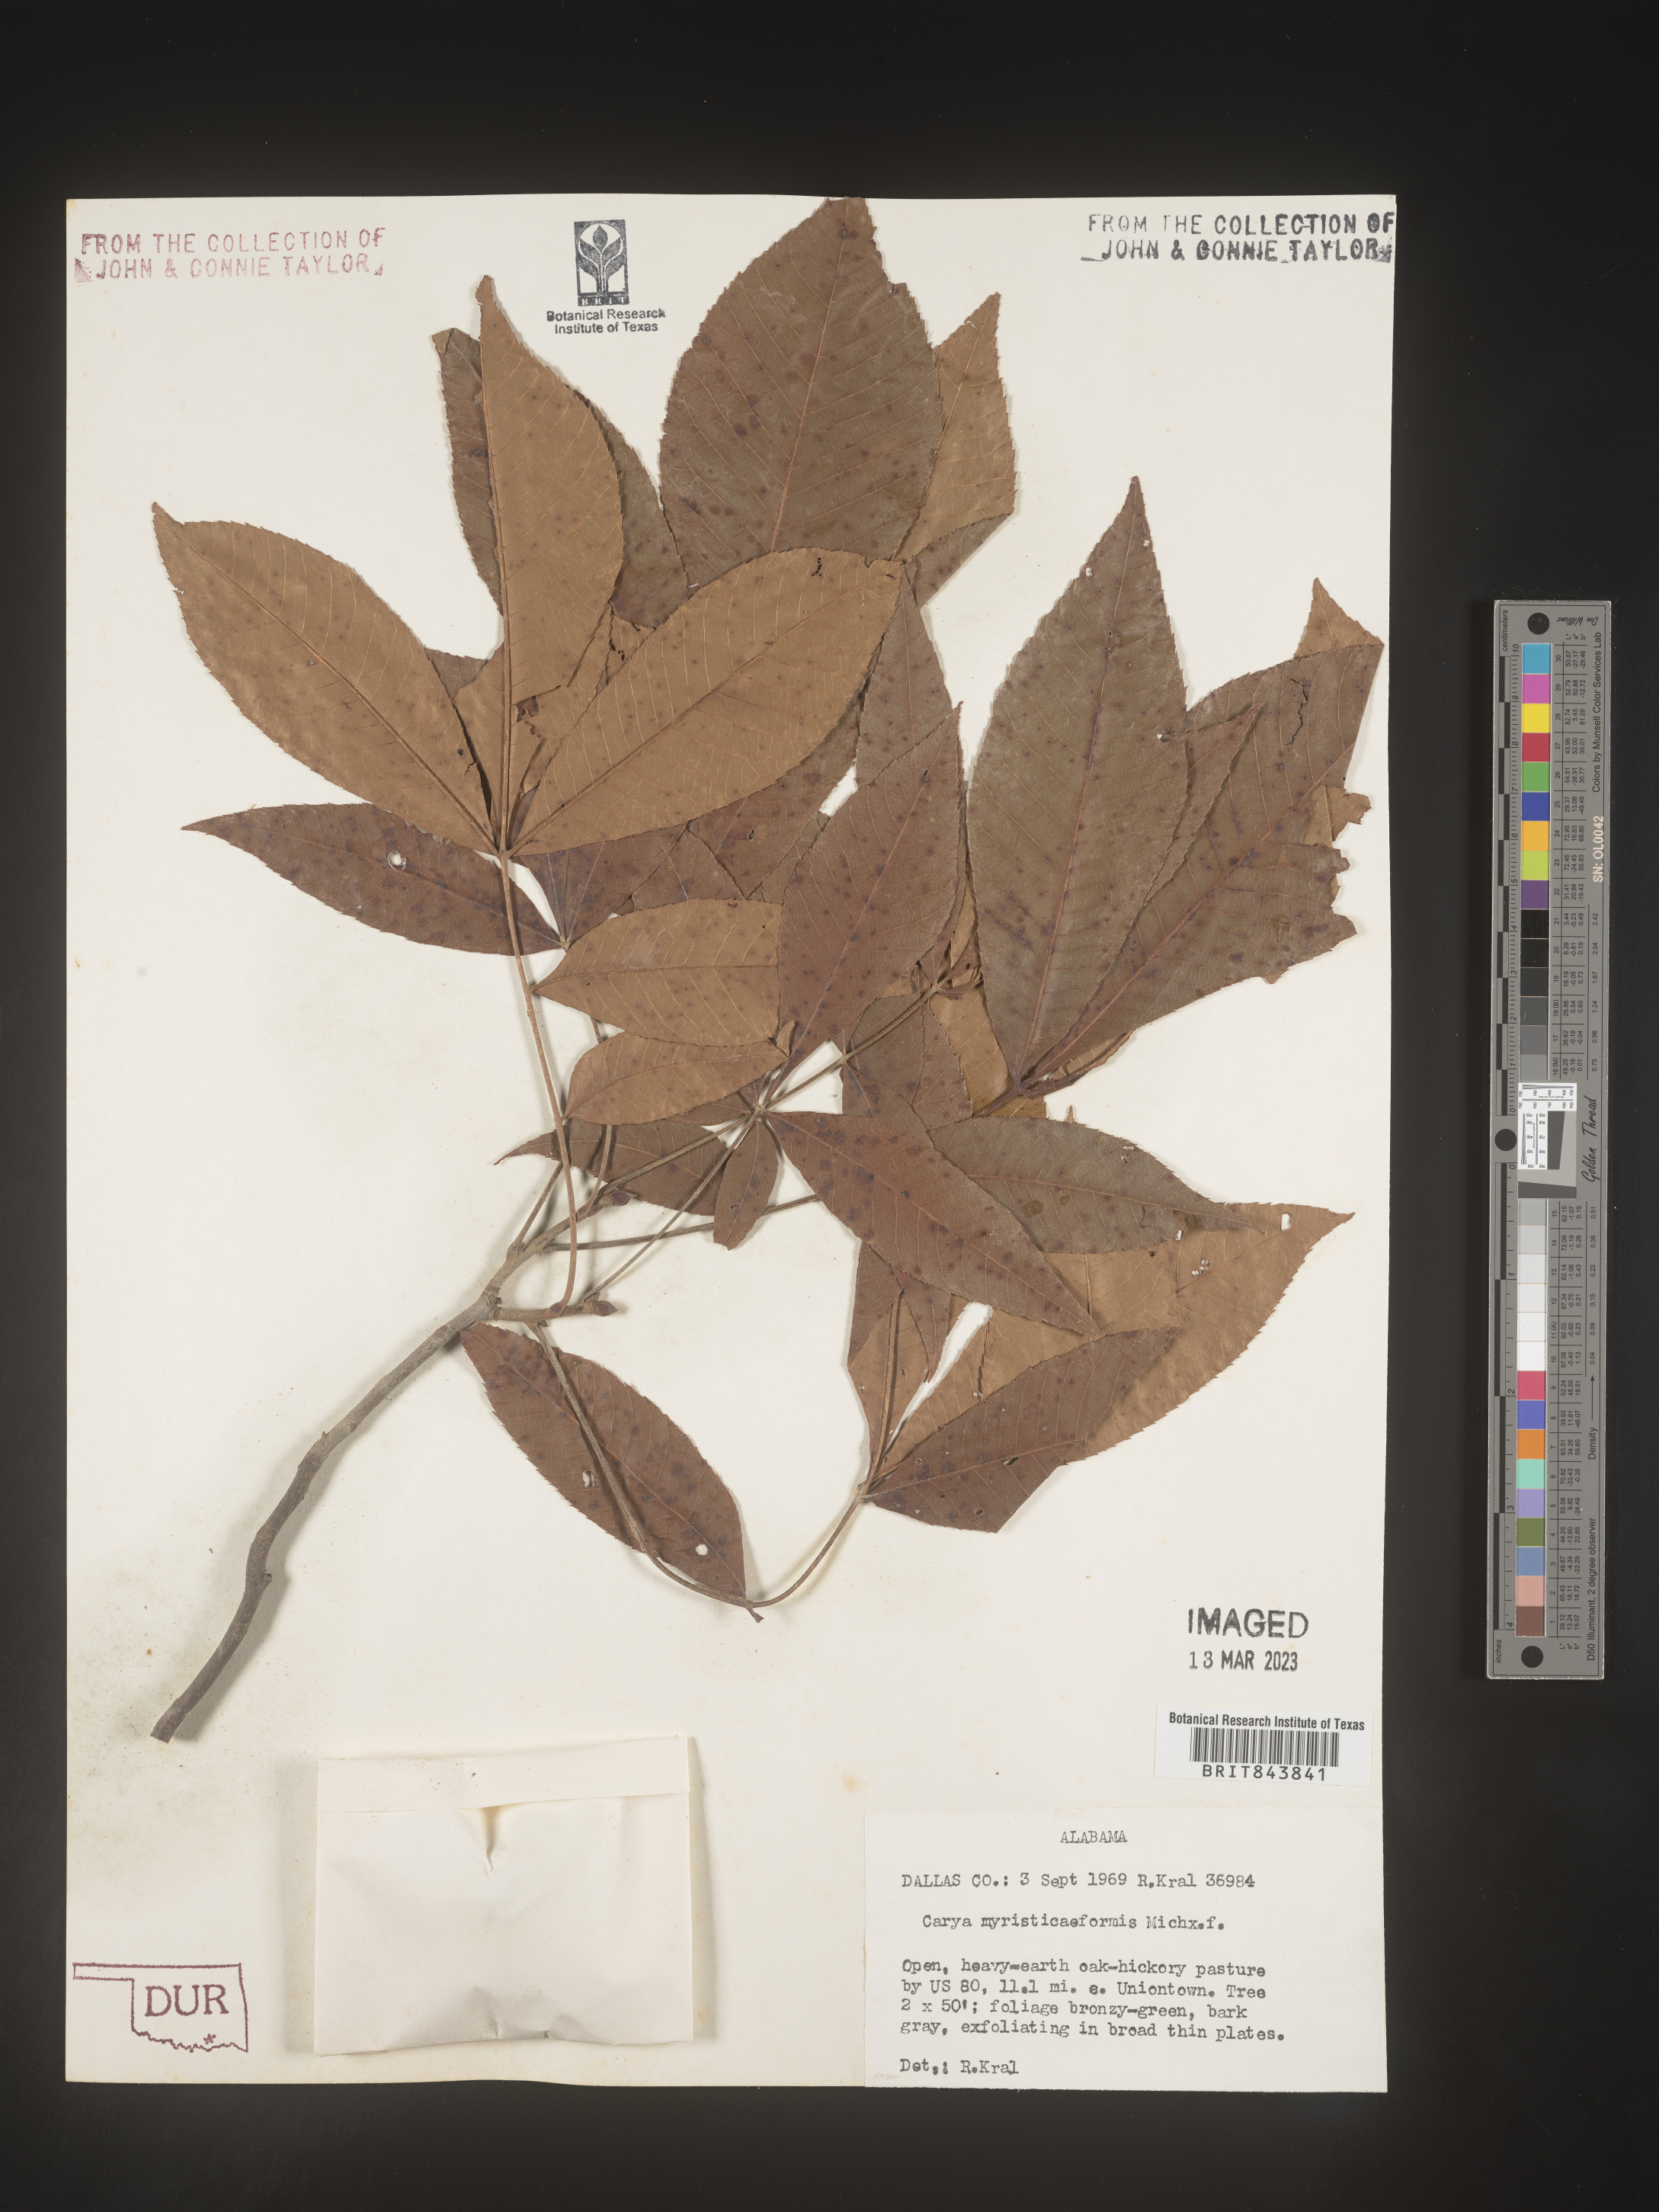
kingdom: Plantae
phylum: Tracheophyta
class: Magnoliopsida
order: Fagales
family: Juglandaceae
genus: Carya
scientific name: Carya myristiciformis
